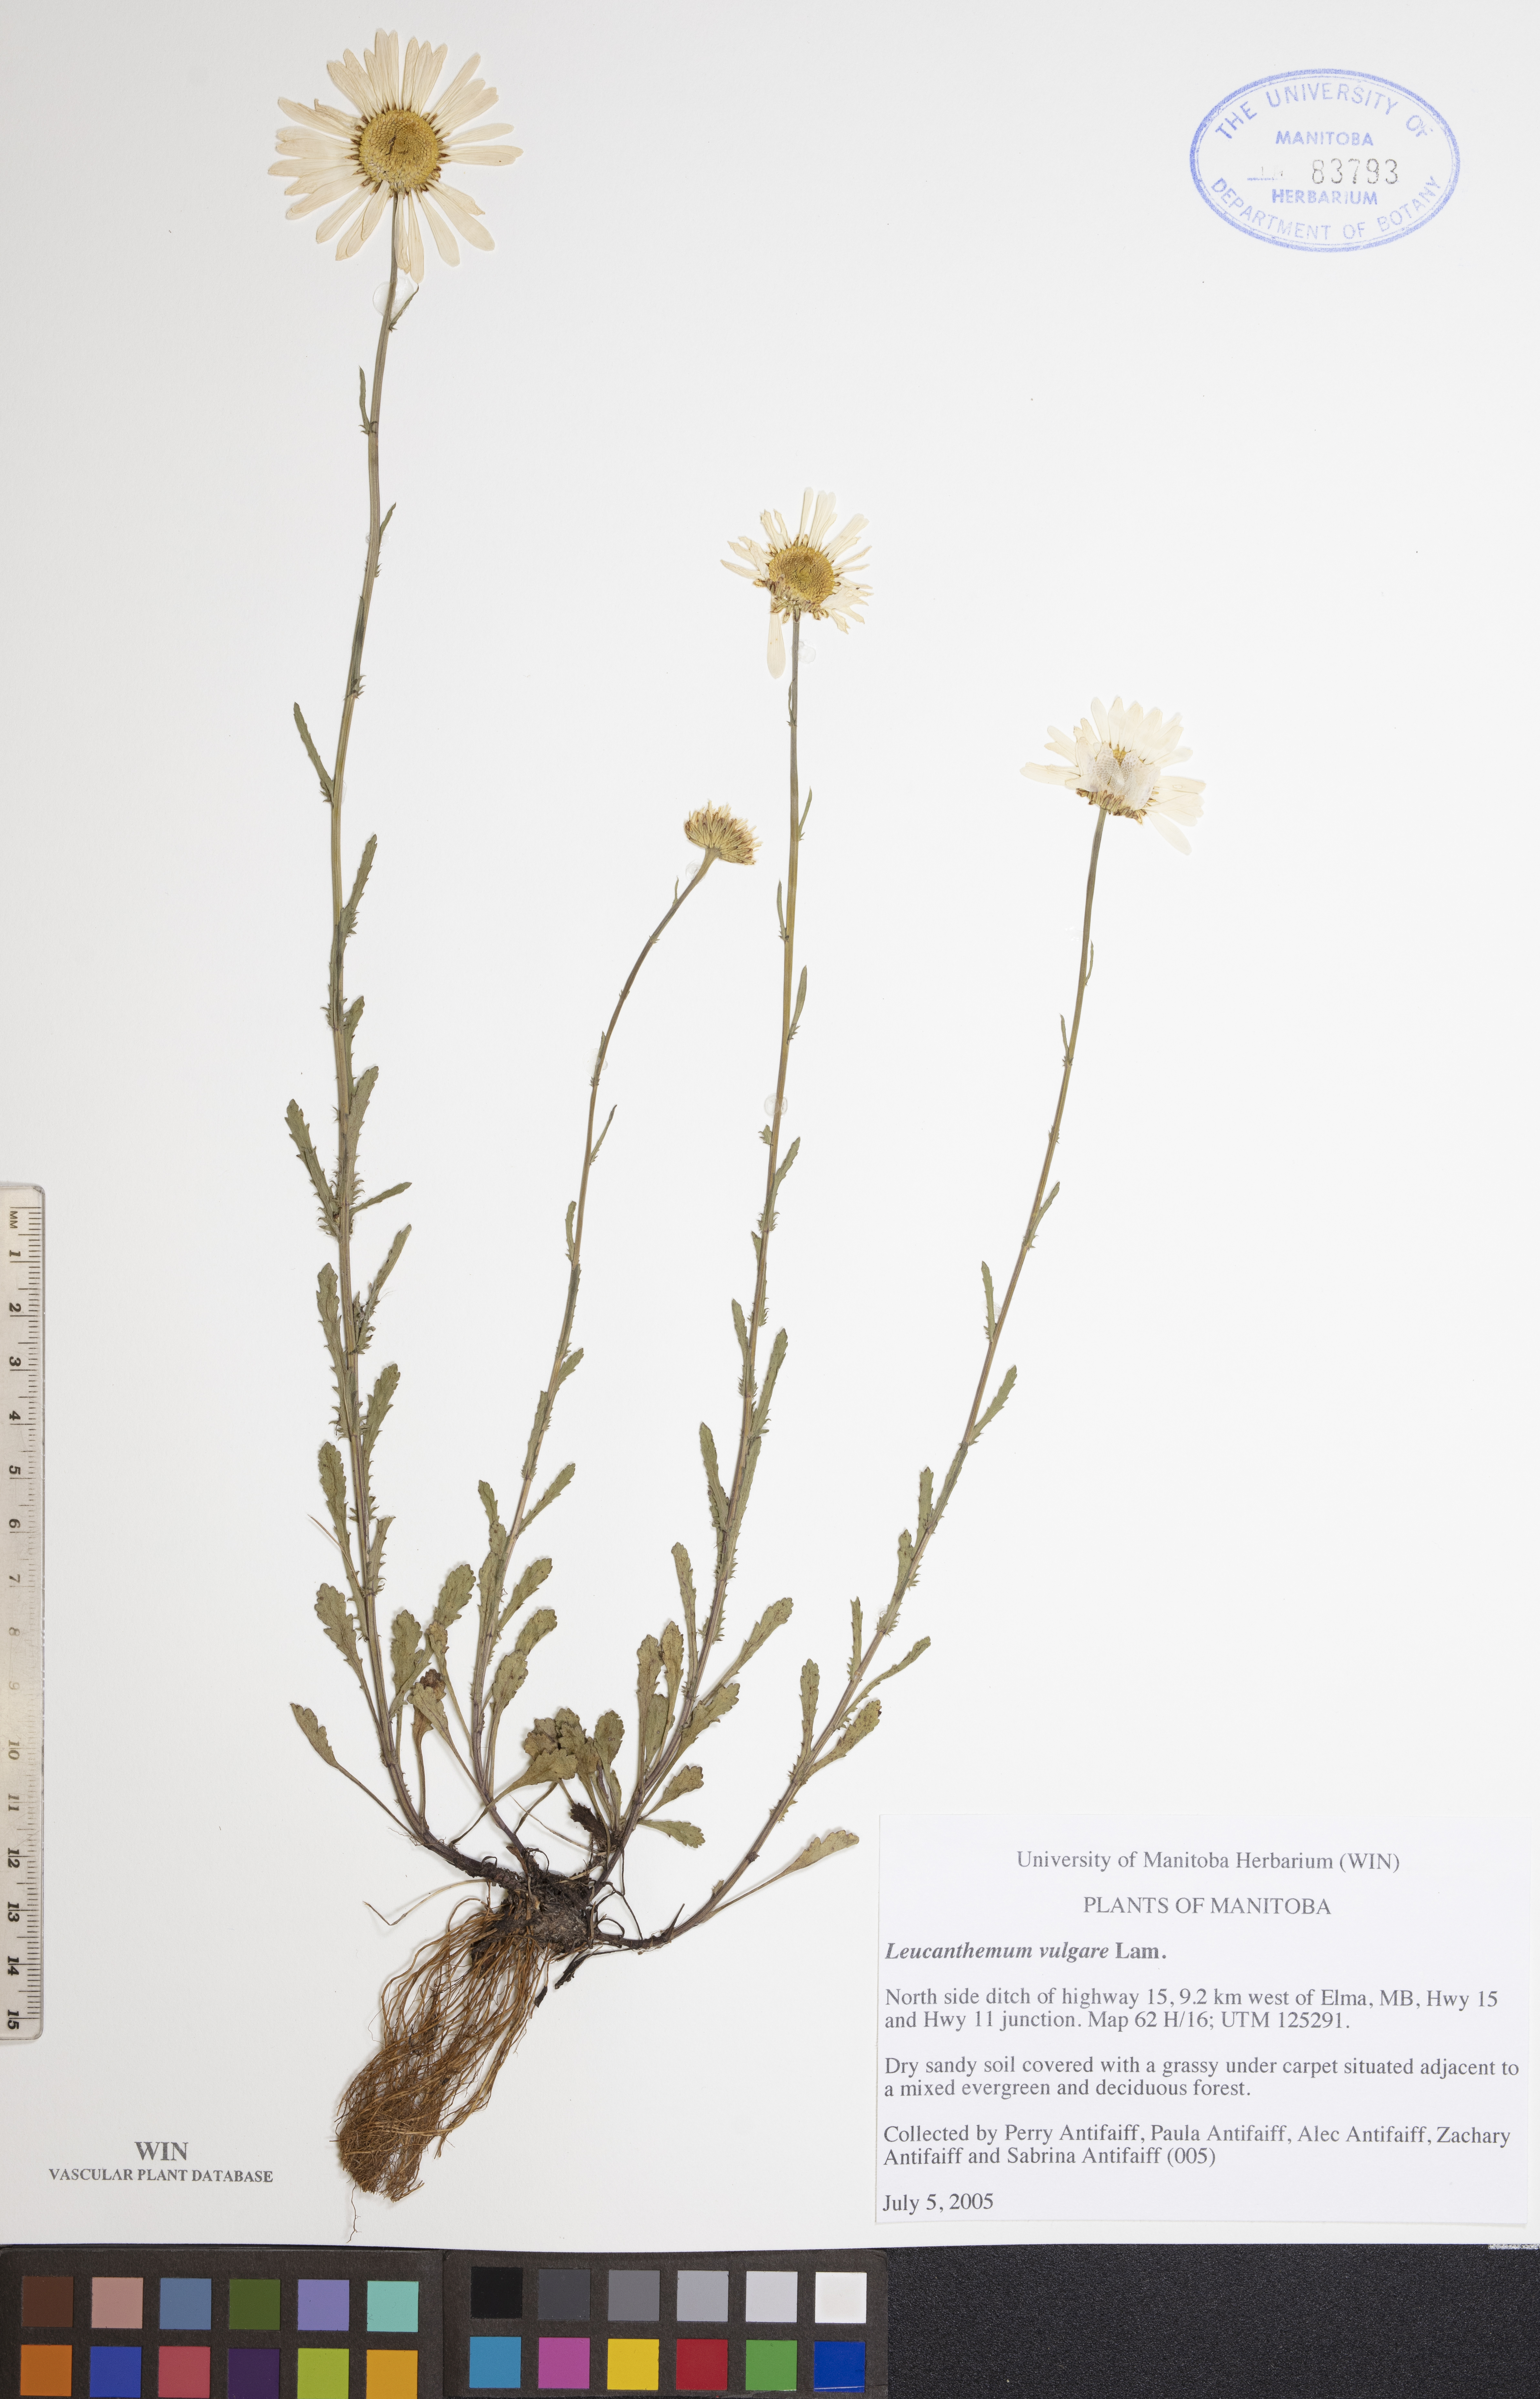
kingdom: Plantae
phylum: Tracheophyta
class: Magnoliopsida
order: Asterales
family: Asteraceae
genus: Leucanthemum
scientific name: Leucanthemum vulgare
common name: Oxeye daisy
